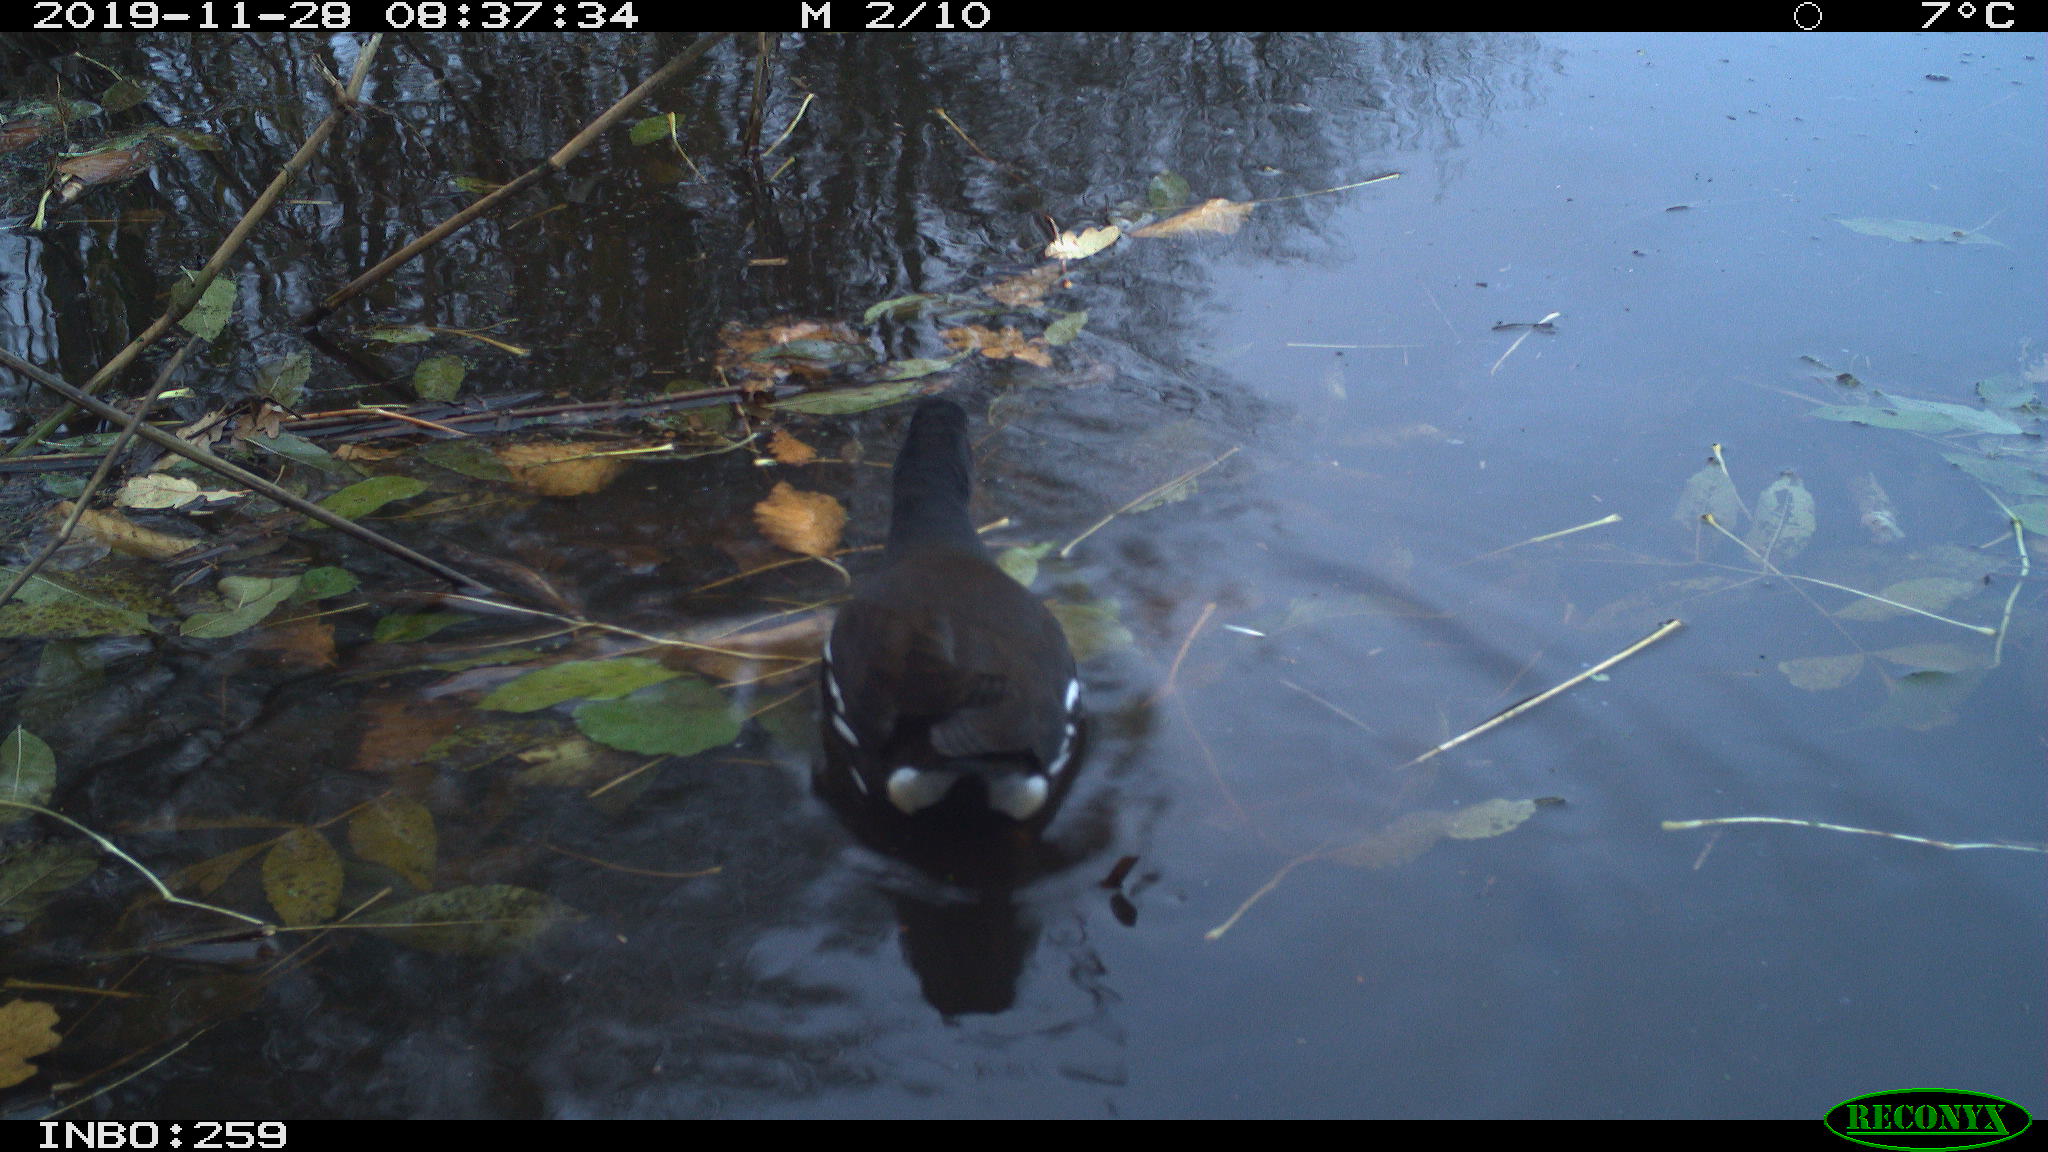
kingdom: Animalia
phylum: Chordata
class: Aves
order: Gruiformes
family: Rallidae
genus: Gallinula
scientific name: Gallinula chloropus
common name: Common moorhen
